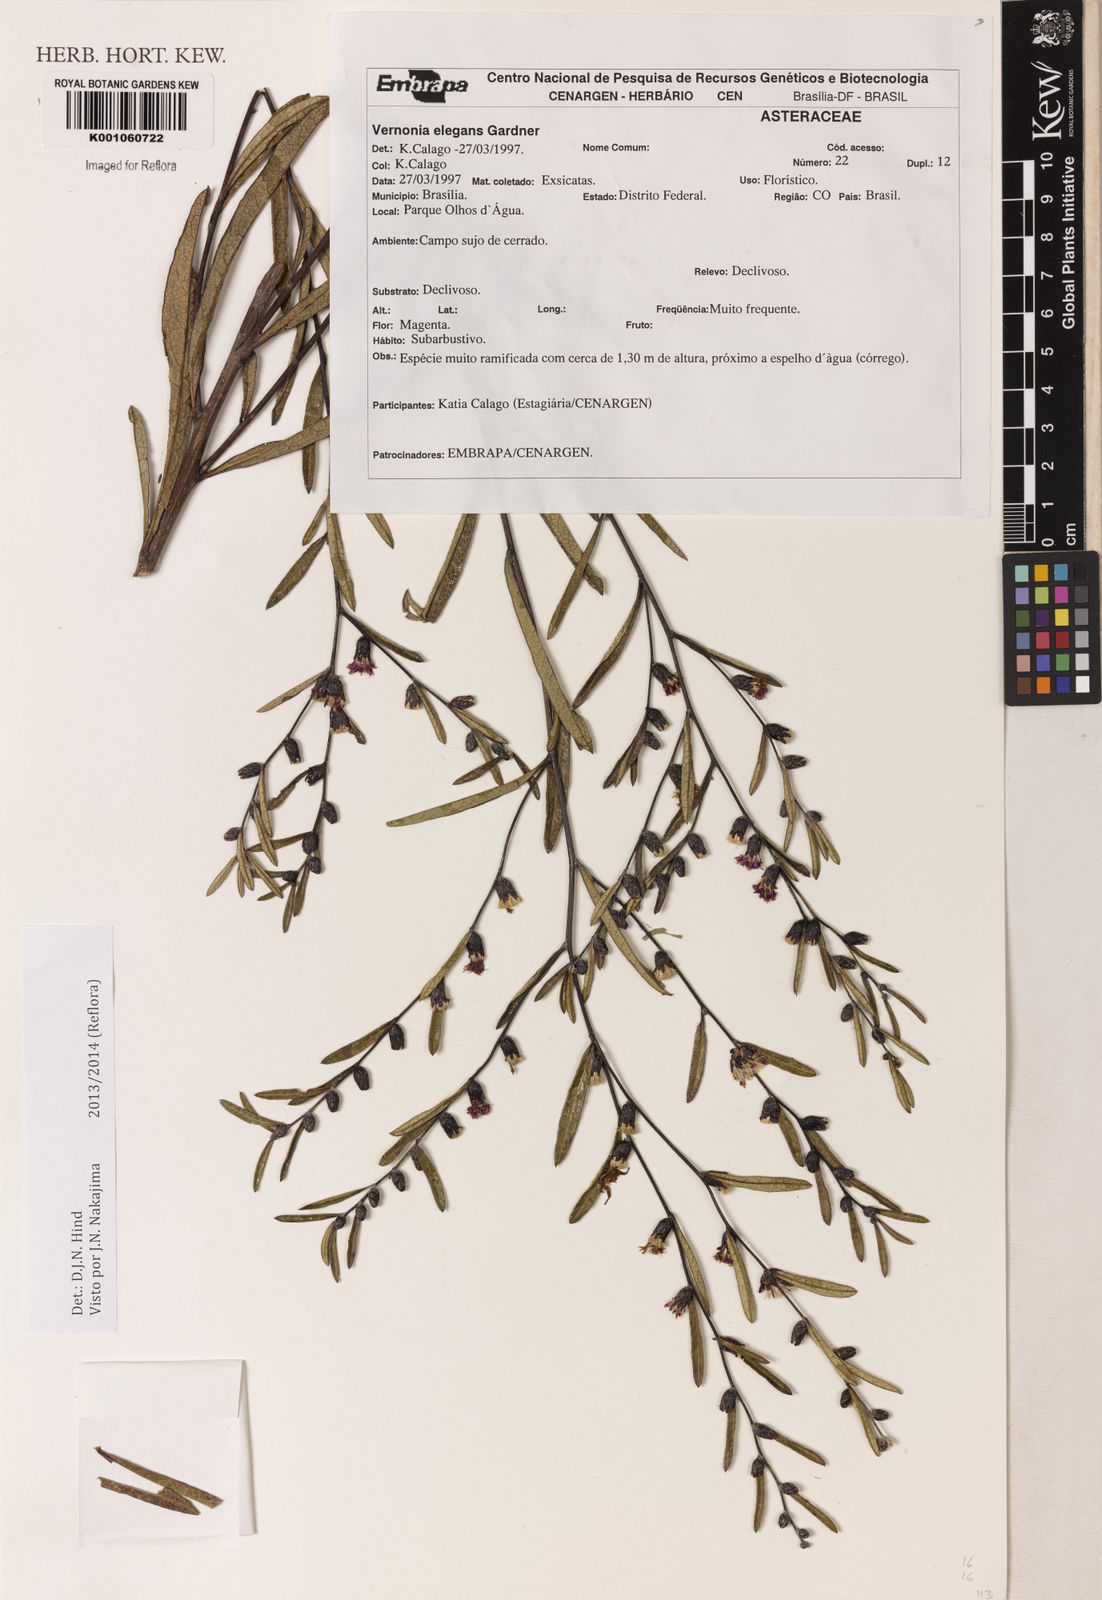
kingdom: Plantae
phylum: Tracheophyta
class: Magnoliopsida
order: Asterales
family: Asteraceae
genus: Lessingianthus
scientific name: Lessingianthus elegans
